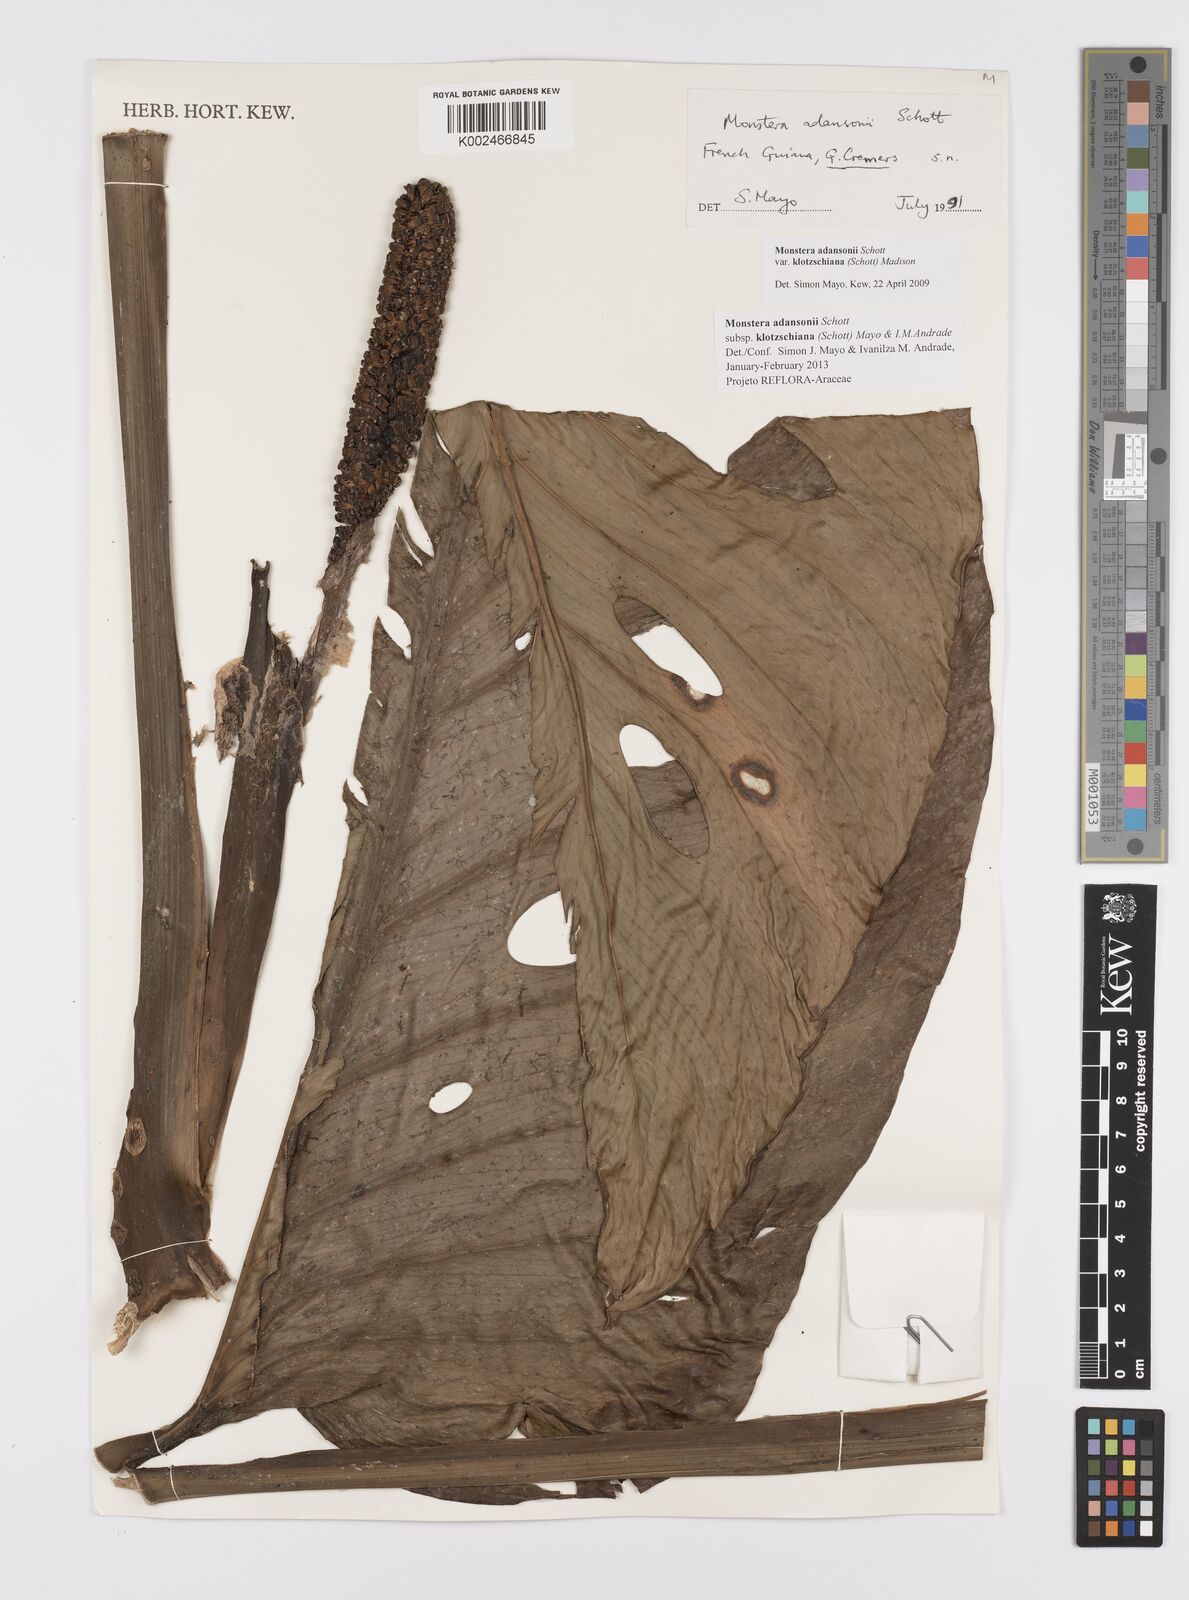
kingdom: Plantae
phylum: Tracheophyta
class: Liliopsida
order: Alismatales
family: Araceae
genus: Monstera
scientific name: Monstera adansonii
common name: Tarovine
